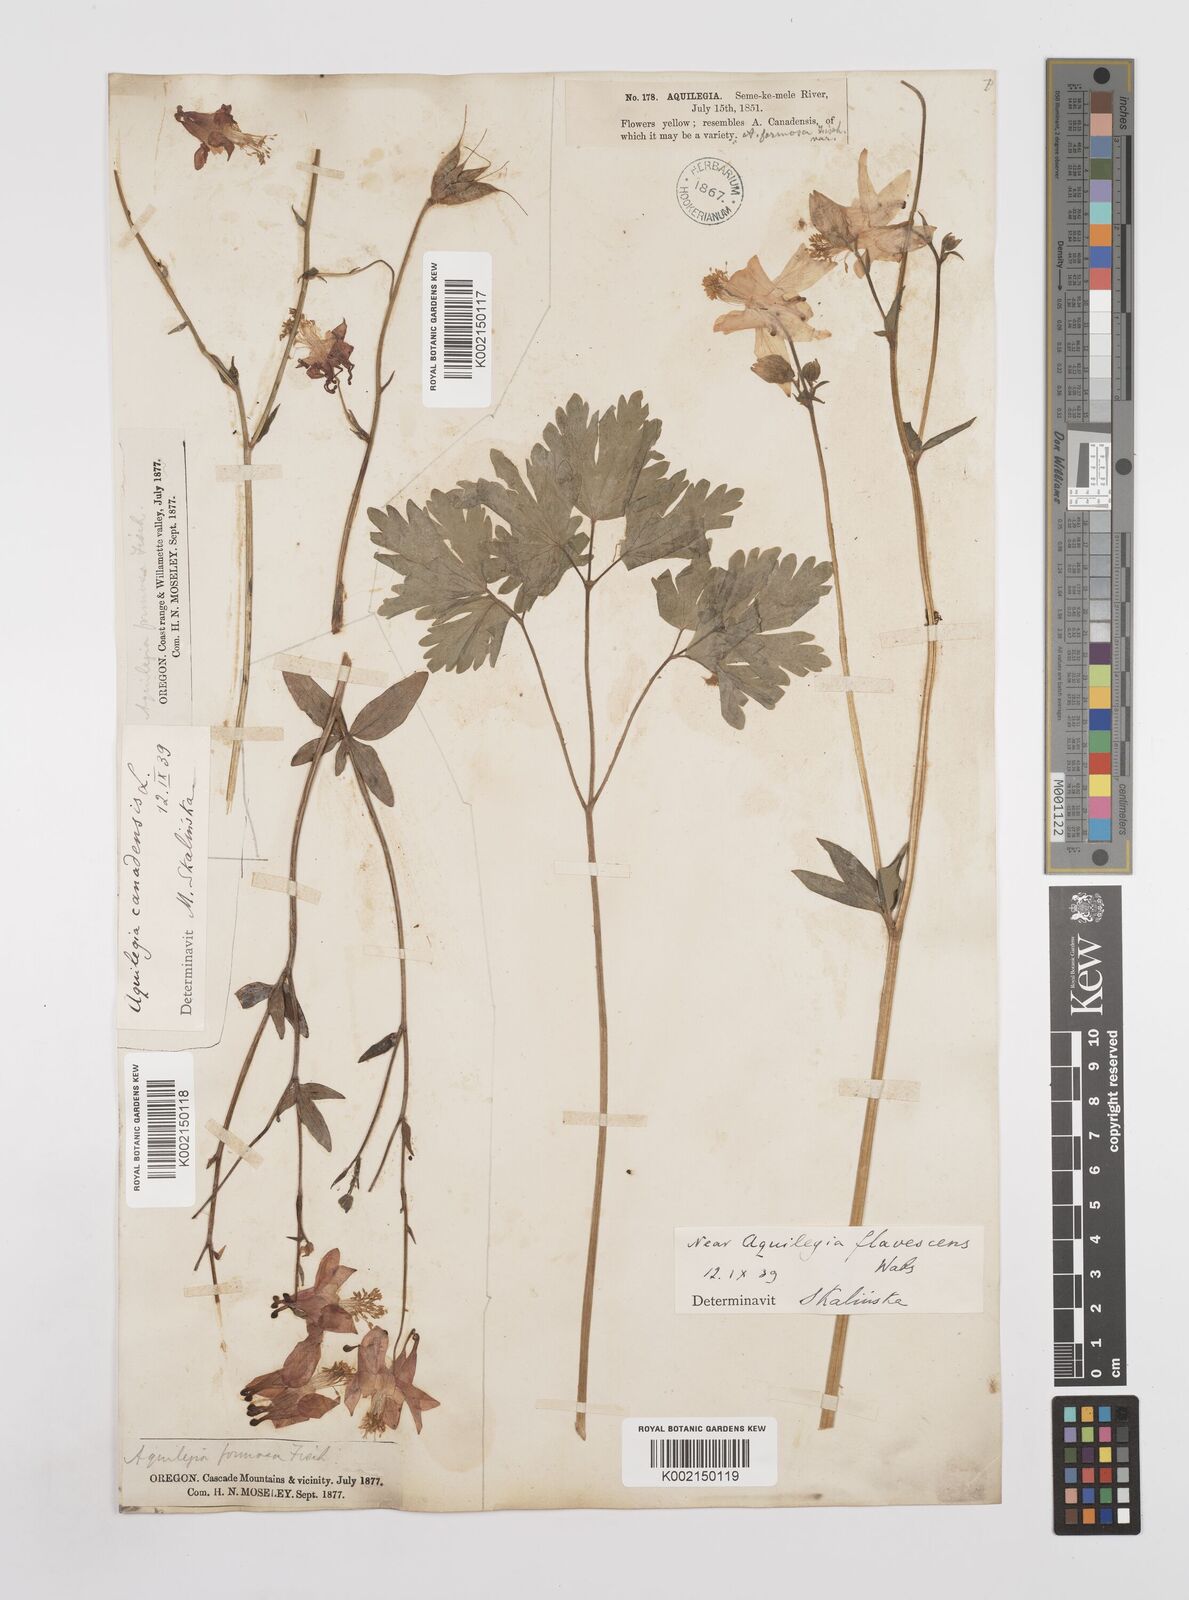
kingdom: Plantae
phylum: Tracheophyta
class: Magnoliopsida
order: Ranunculales
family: Ranunculaceae
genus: Aquilegia
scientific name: Aquilegia
